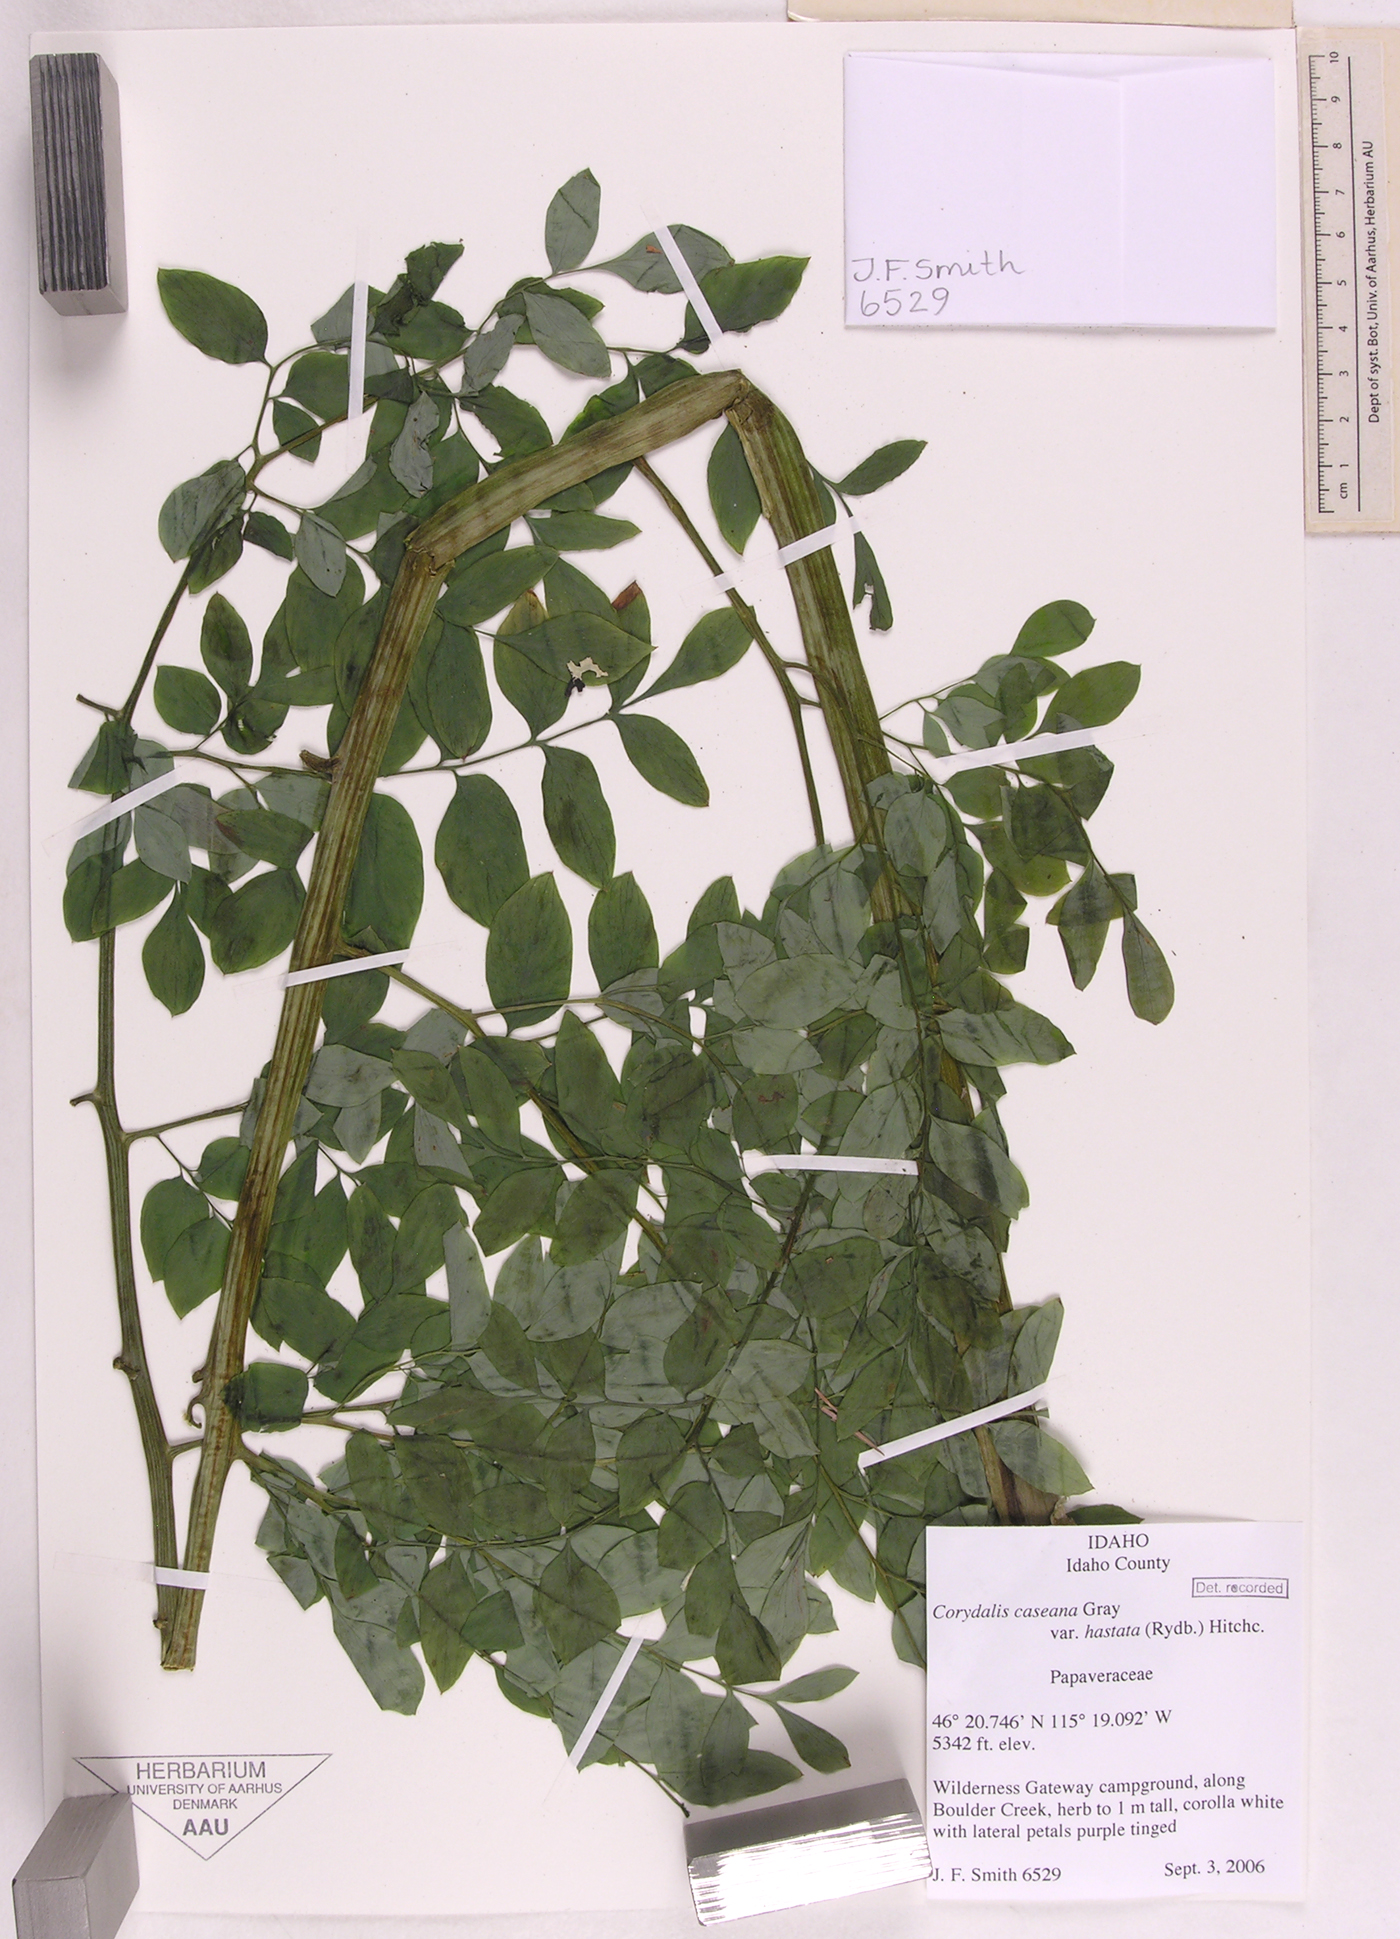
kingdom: Plantae
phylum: Tracheophyta
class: Magnoliopsida
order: Ranunculales
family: Papaveraceae
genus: Corydalis
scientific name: Corydalis caseana
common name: Fitweed
